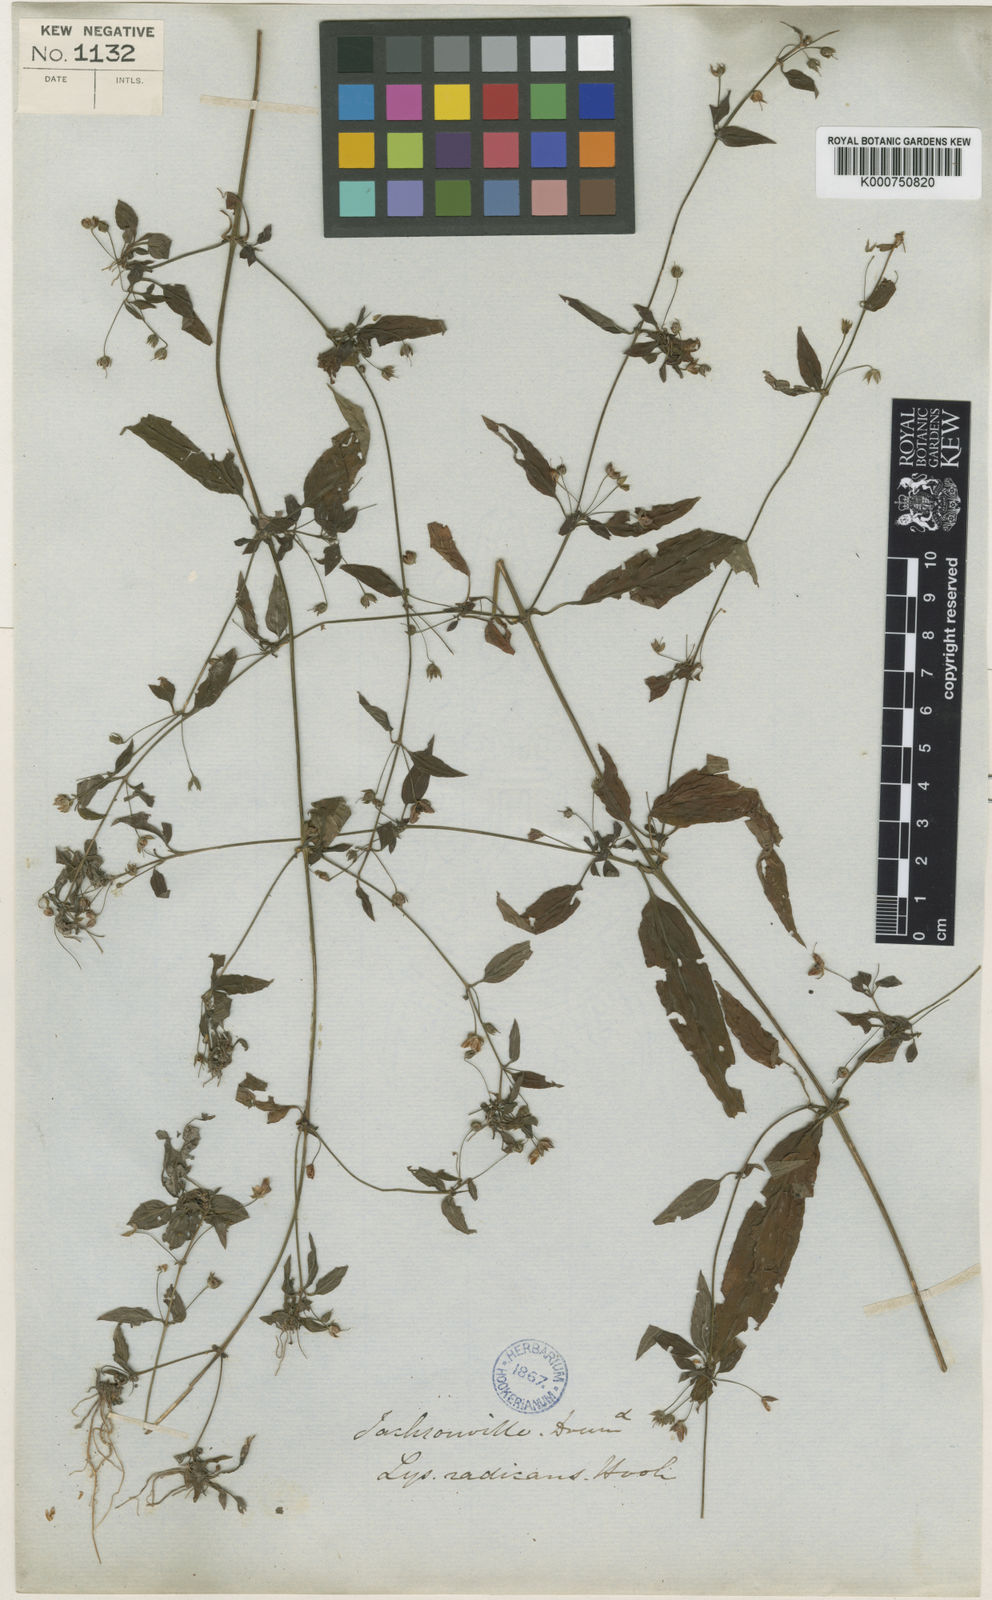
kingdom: Plantae
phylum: Tracheophyta
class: Magnoliopsida
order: Ericales
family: Primulaceae
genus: Lysimachia
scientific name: Lysimachia radicans
